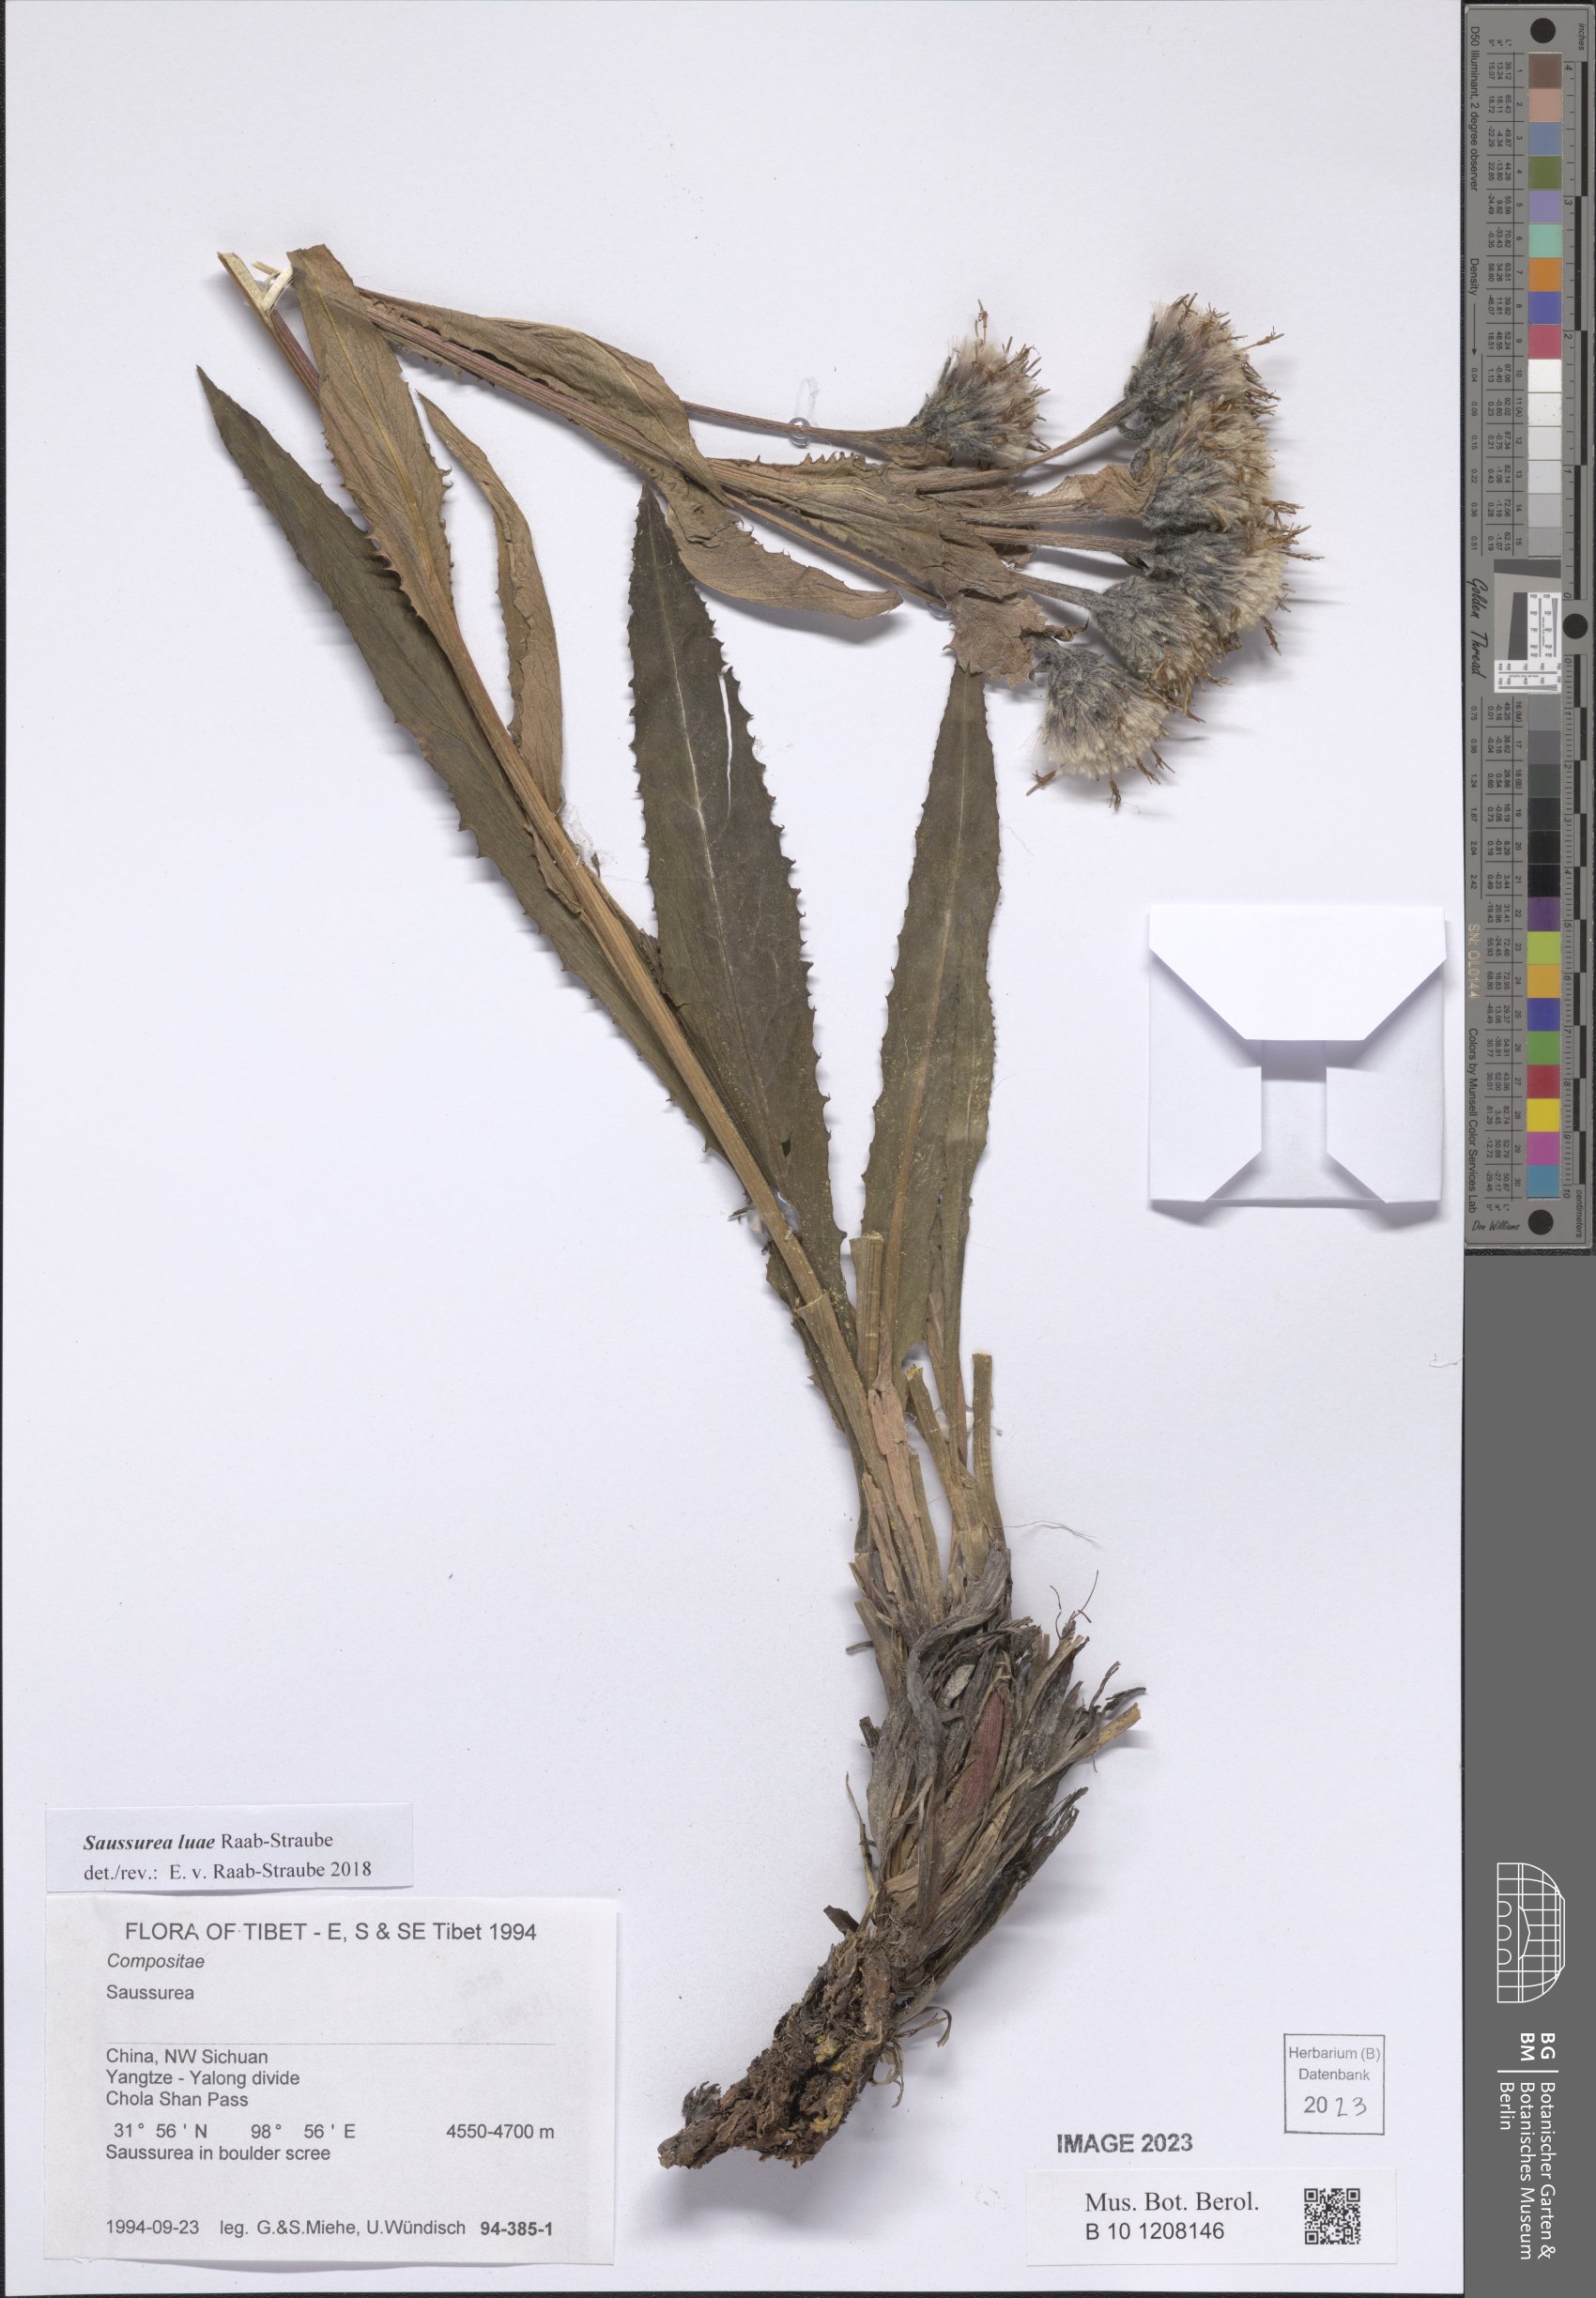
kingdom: Plantae
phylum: Tracheophyta
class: Magnoliopsida
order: Asterales
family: Asteraceae
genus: Saussurea
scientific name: Saussurea luae
